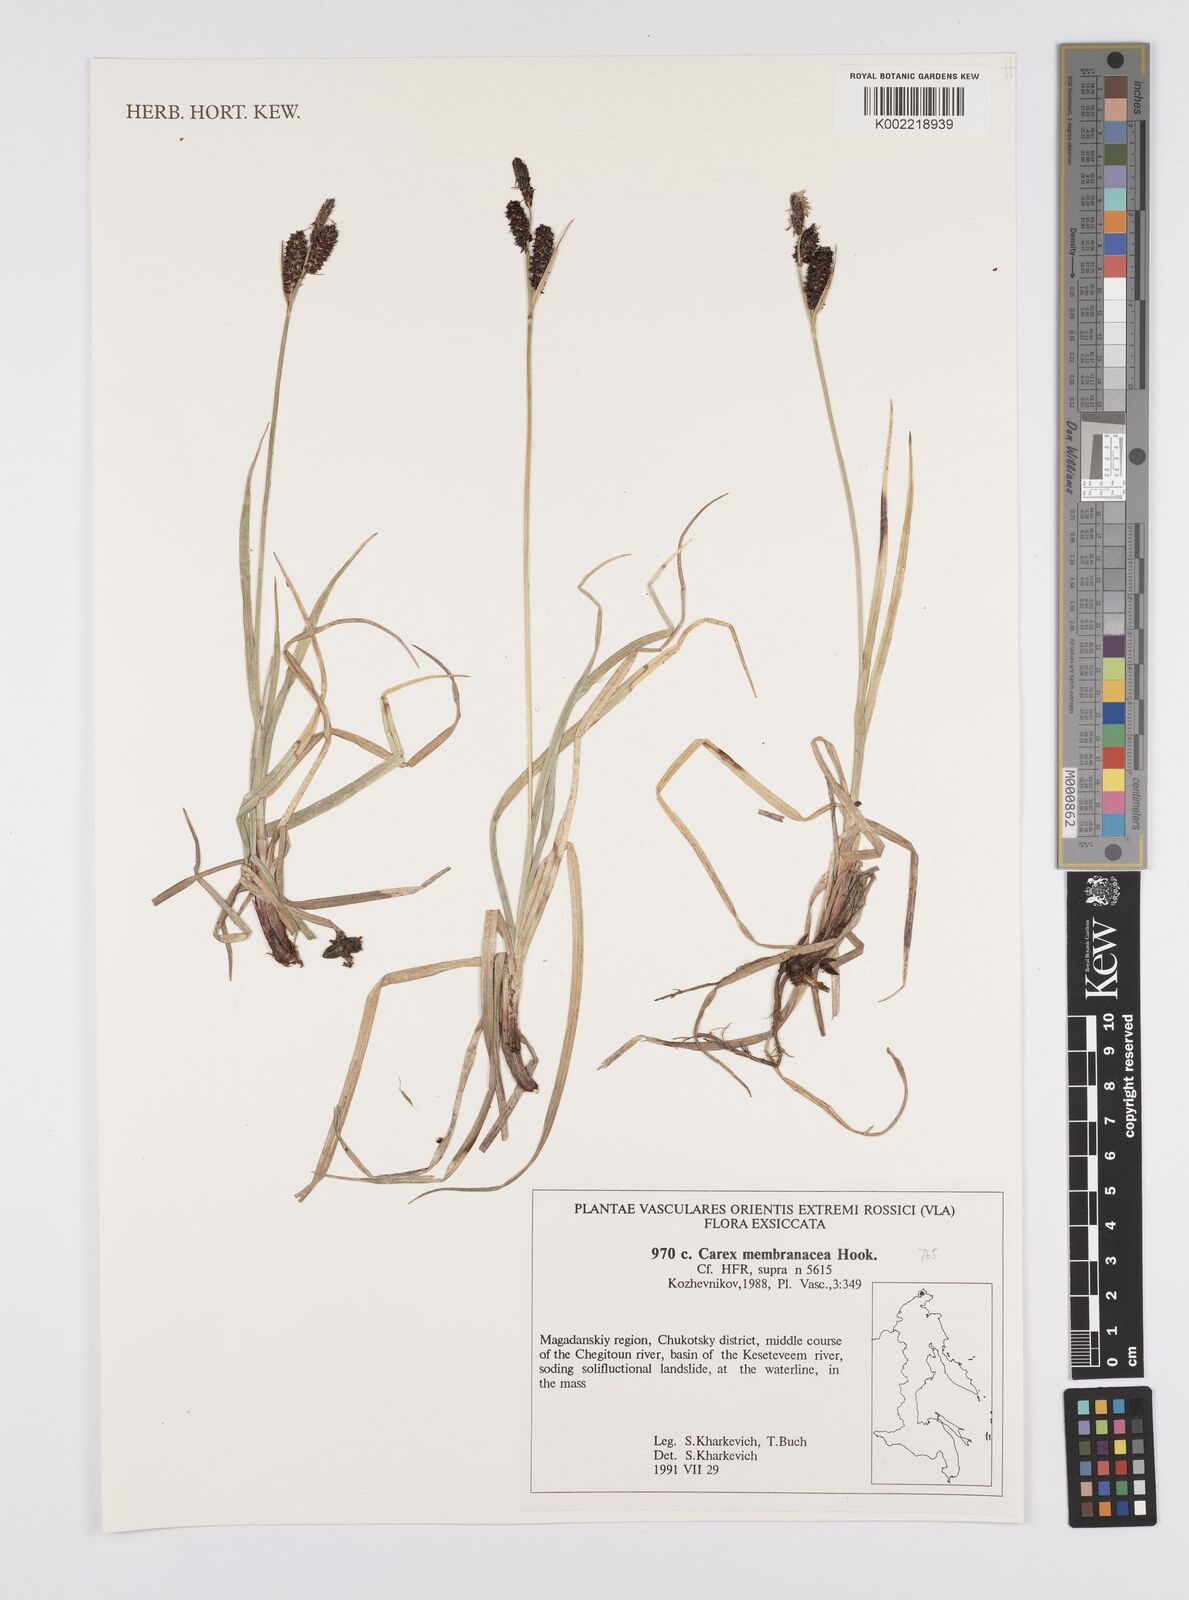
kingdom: Plantae
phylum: Tracheophyta
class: Liliopsida
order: Poales
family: Cyperaceae
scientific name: Cyperaceae
